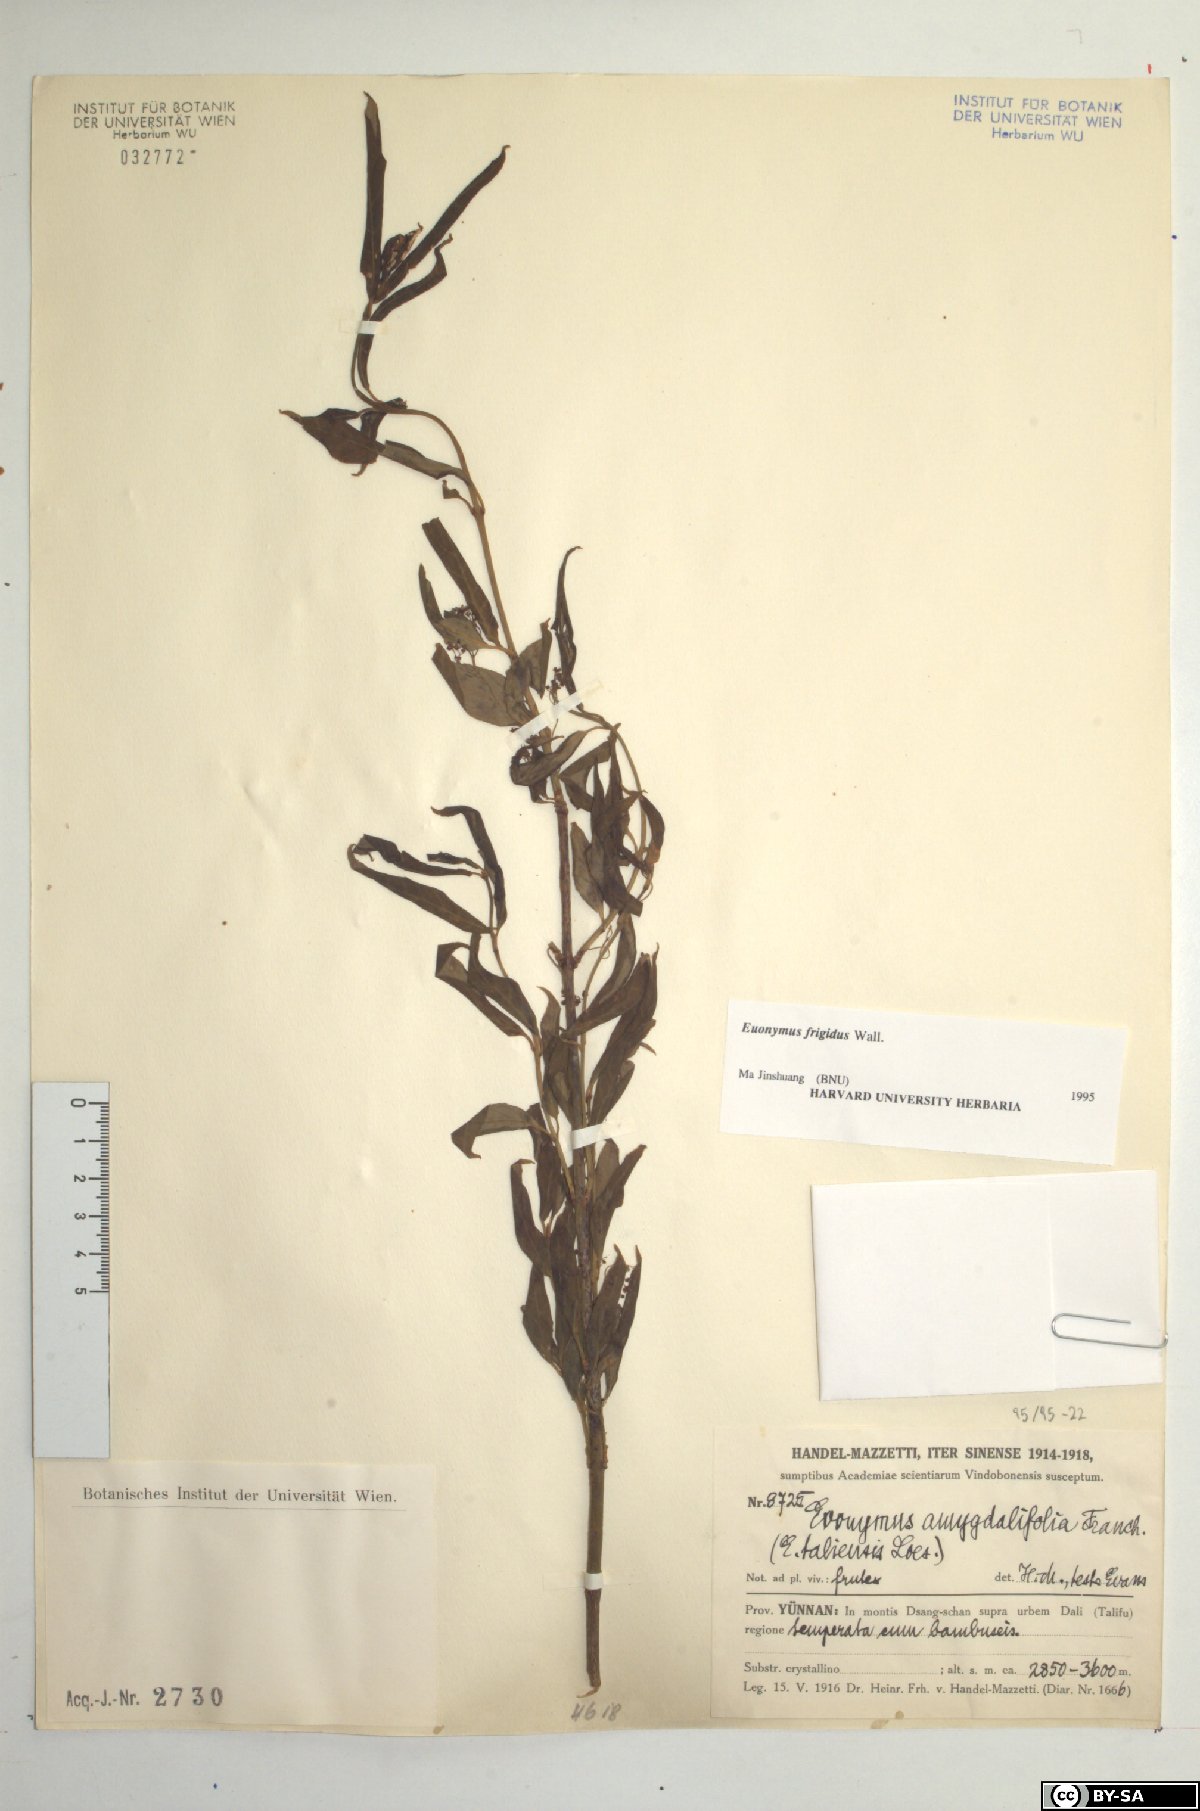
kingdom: Plantae
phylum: Tracheophyta
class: Magnoliopsida
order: Celastrales
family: Celastraceae
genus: Euonymus
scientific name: Euonymus frigidus
